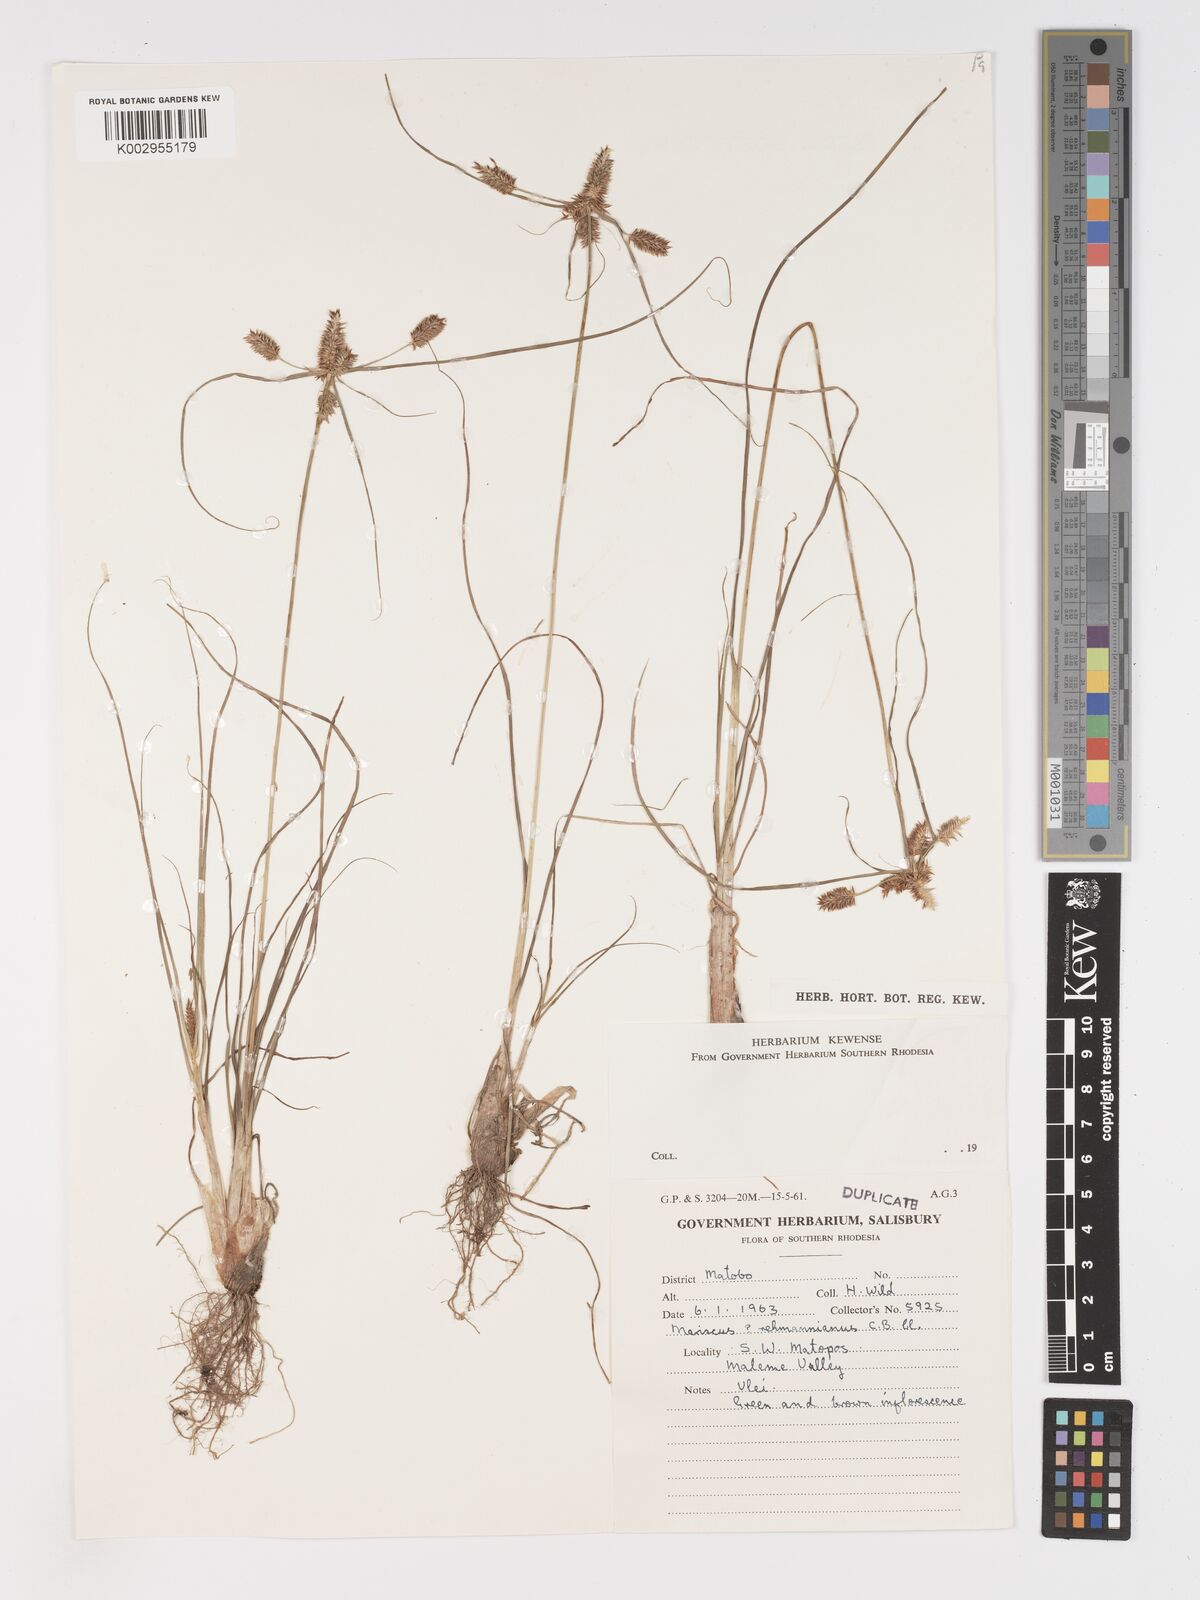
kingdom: Plantae
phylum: Tracheophyta
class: Liliopsida
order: Poales
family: Cyperaceae
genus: Cyperus
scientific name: Cyperus
